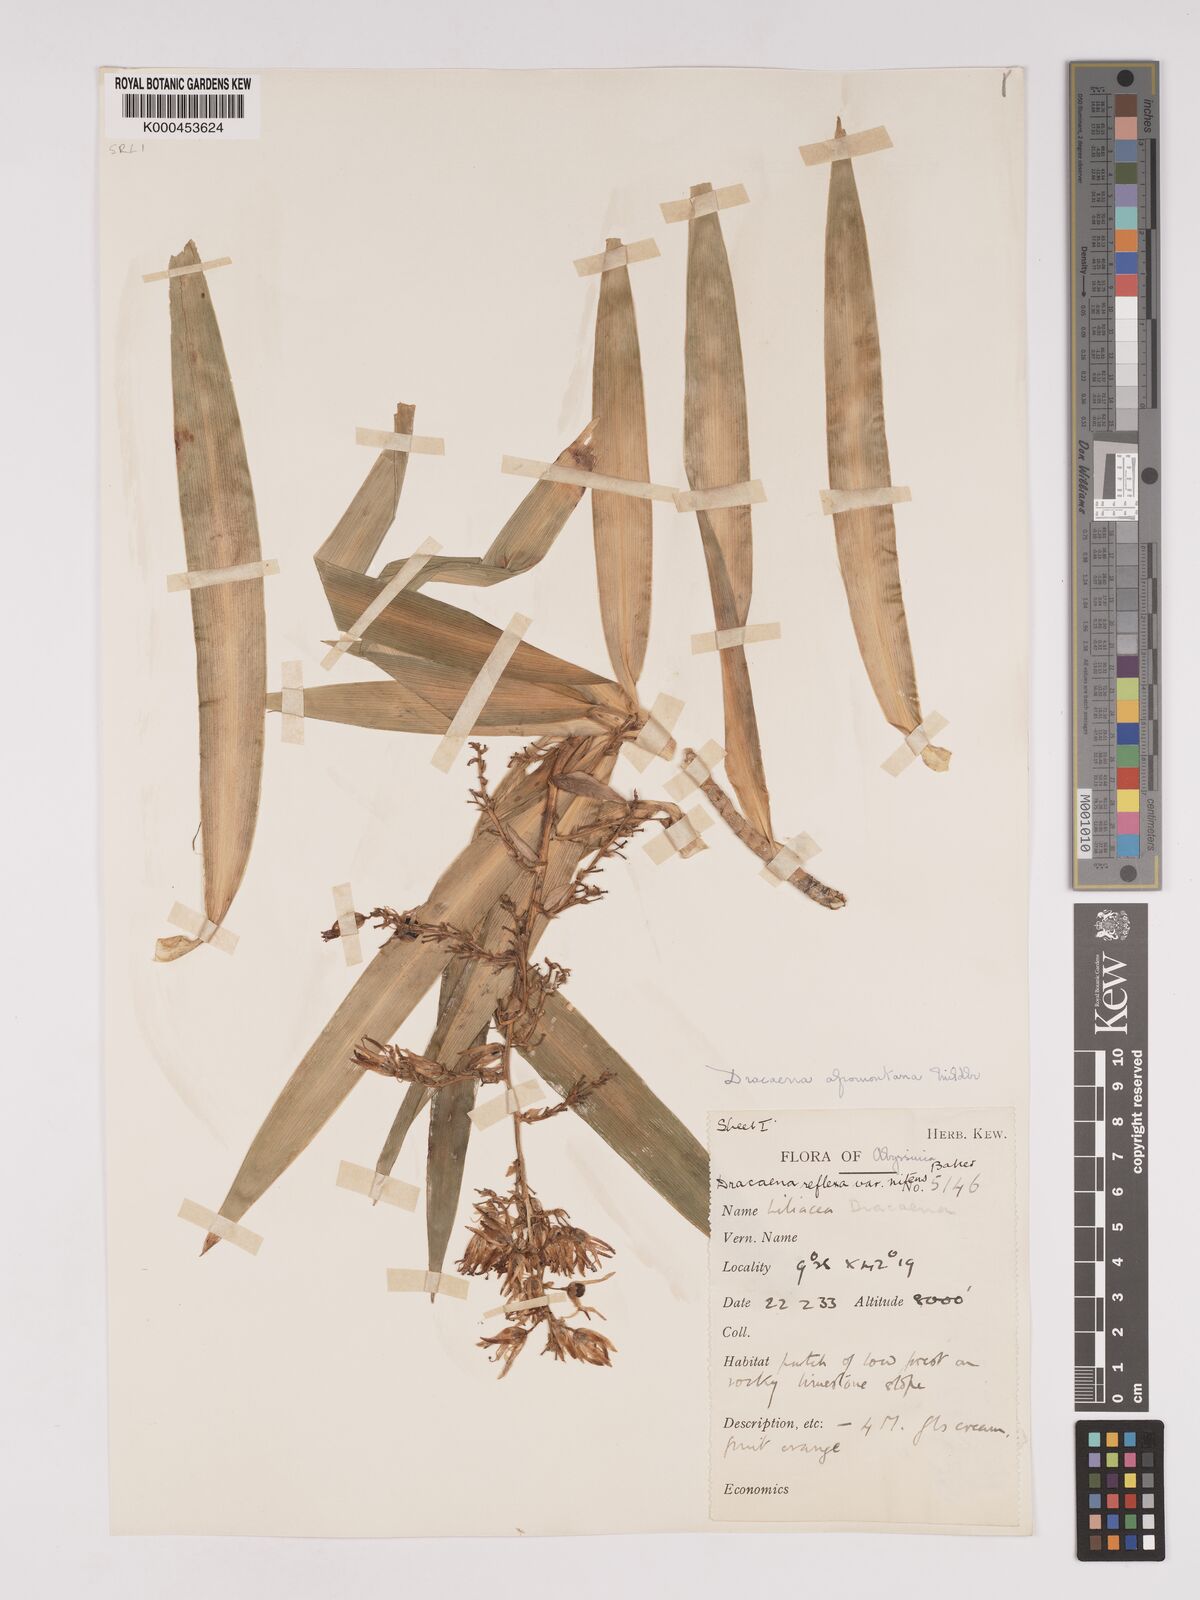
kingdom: Plantae
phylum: Tracheophyta
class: Liliopsida
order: Asparagales
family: Asparagaceae
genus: Dracaena
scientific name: Dracaena afromontana
